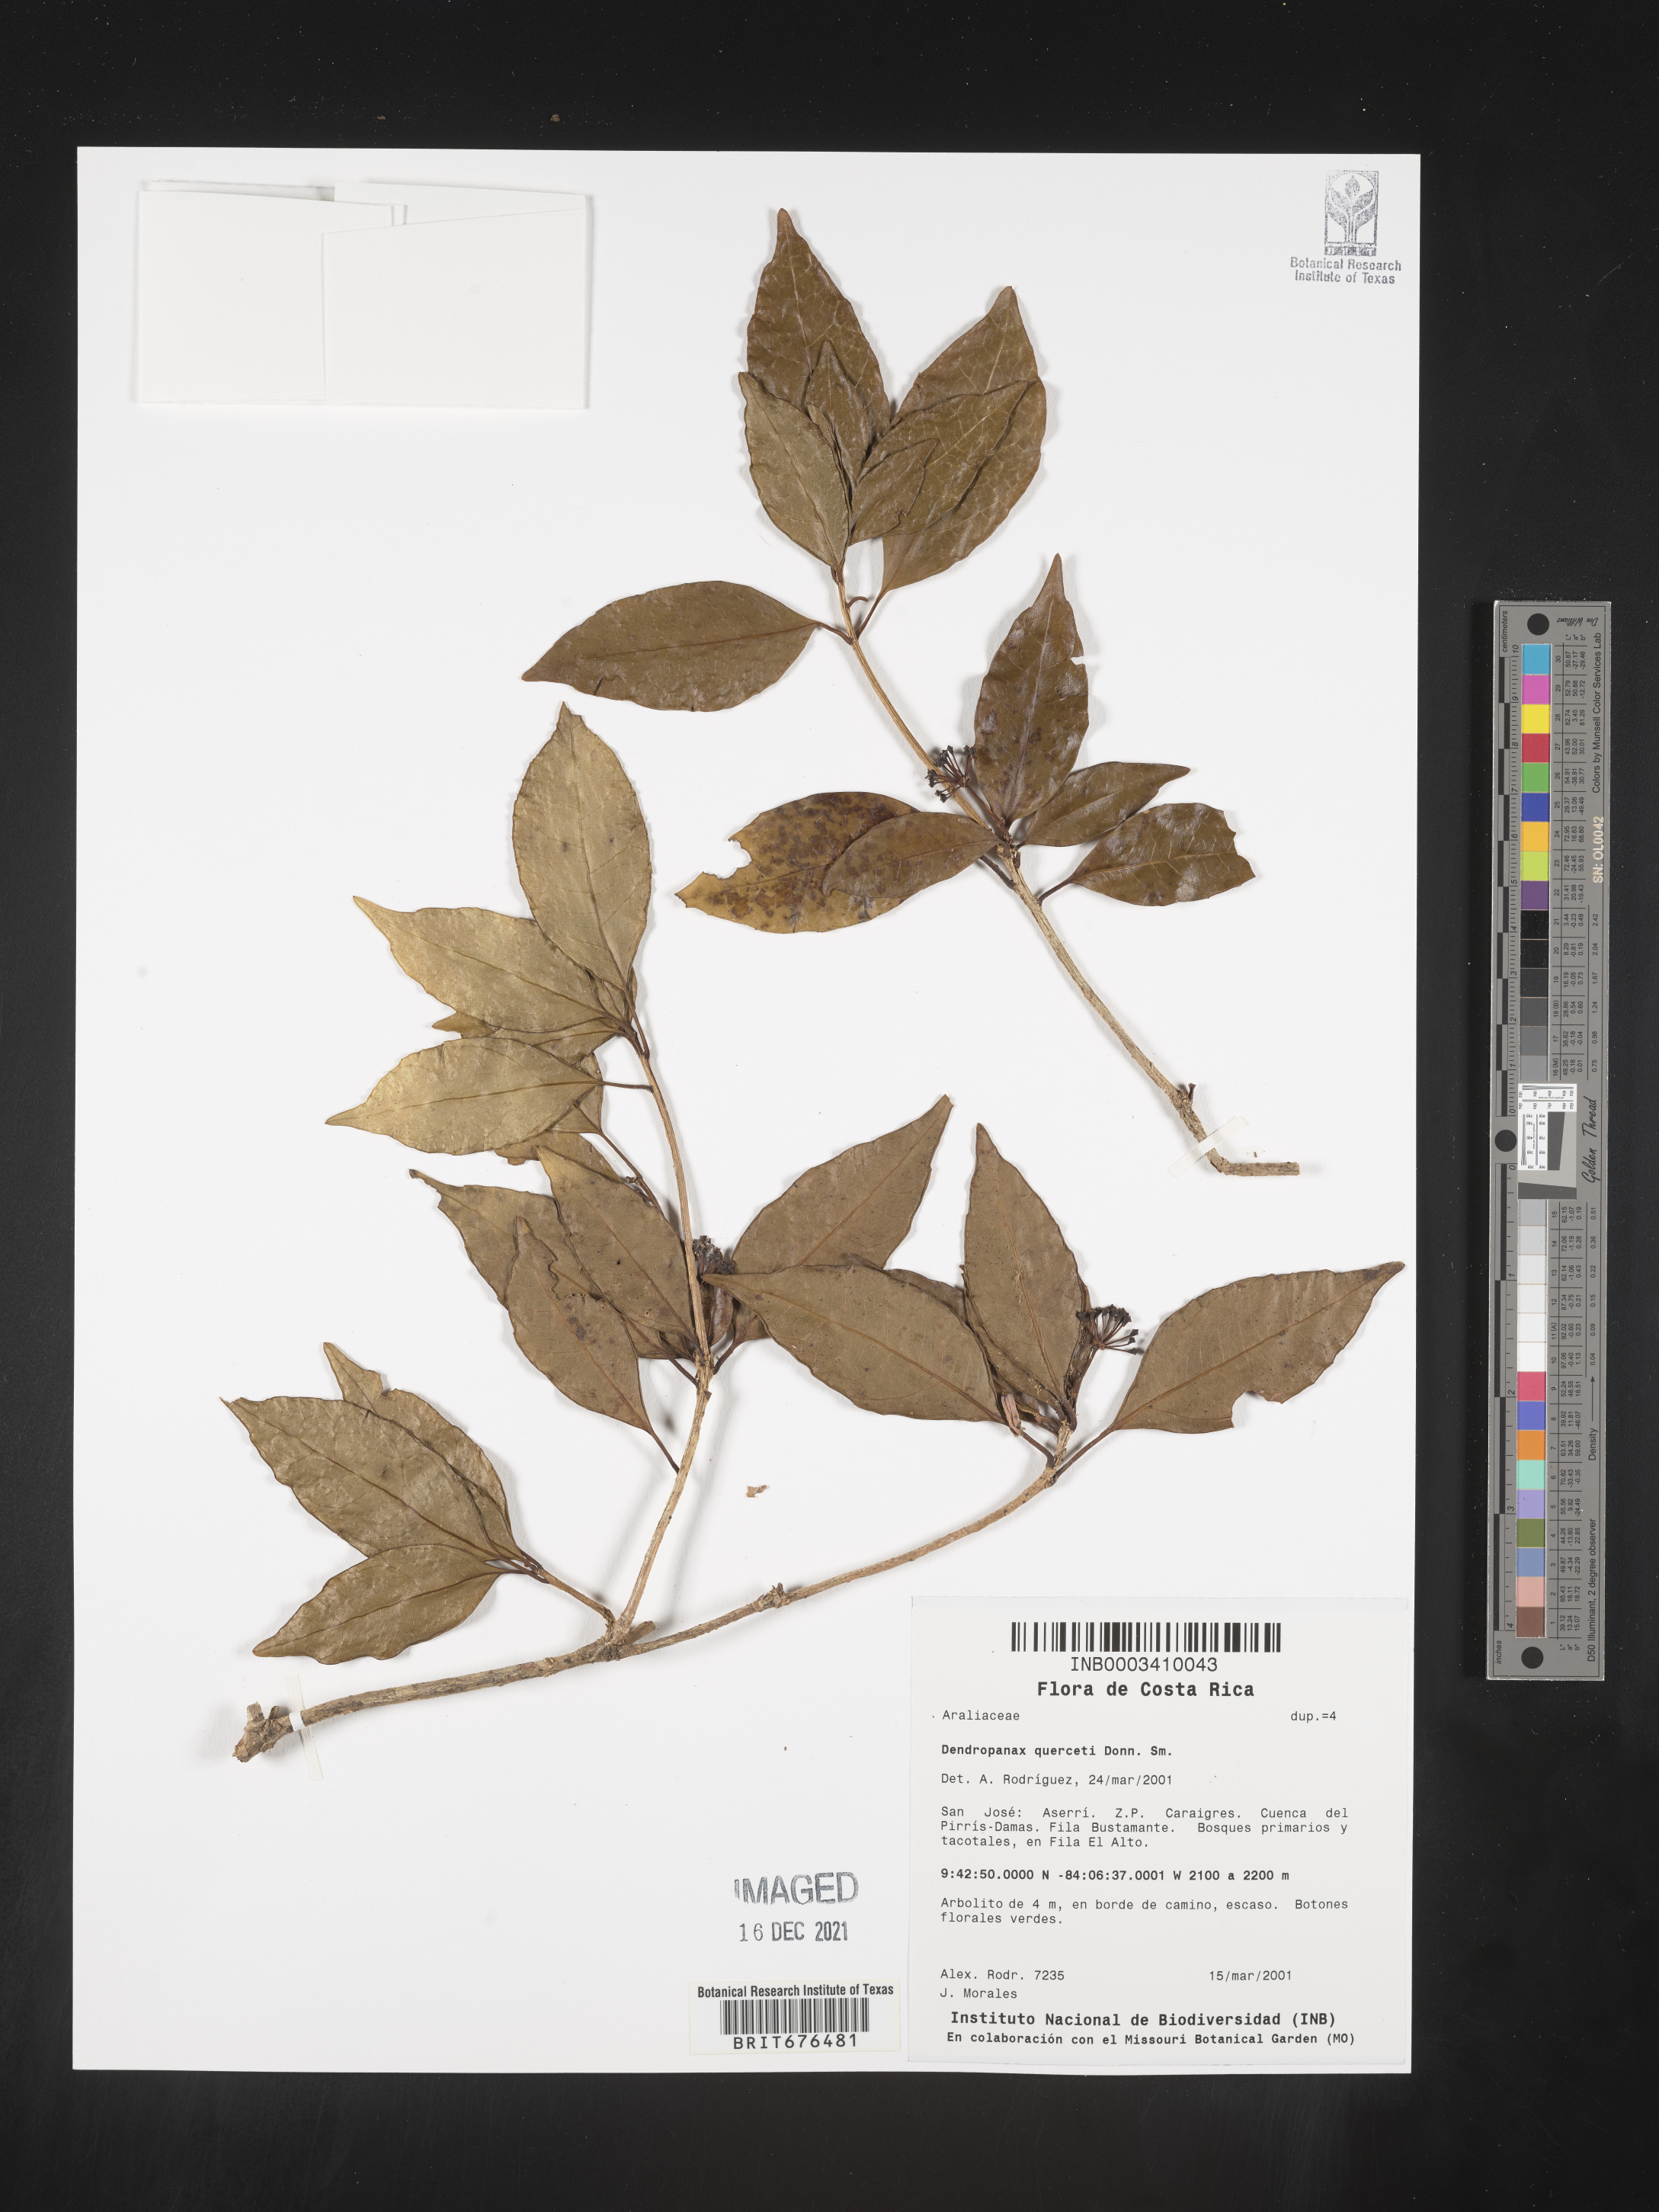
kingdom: Plantae
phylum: Tracheophyta
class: Magnoliopsida
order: Apiales
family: Araliaceae
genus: Dendropanax
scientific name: Dendropanax
